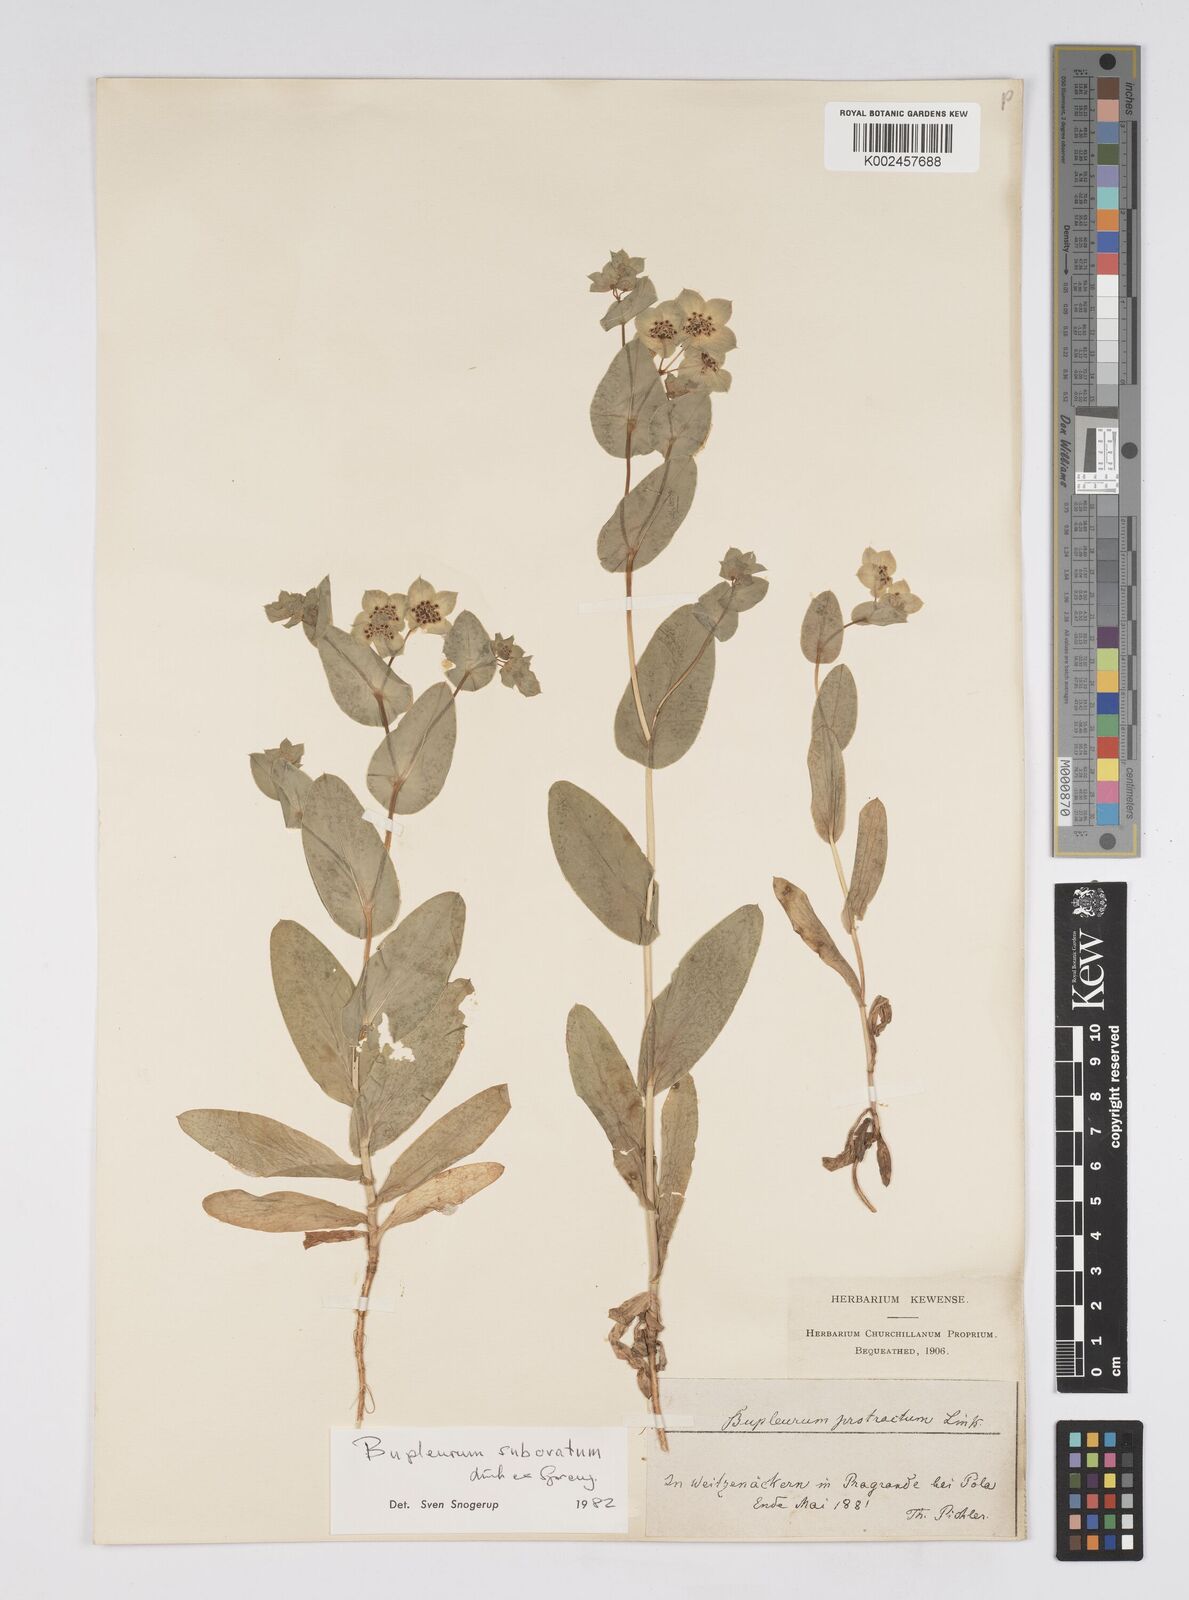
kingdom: Plantae
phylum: Tracheophyta
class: Magnoliopsida
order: Apiales
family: Apiaceae
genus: Bupleurum
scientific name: Bupleurum lancifolium
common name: False thorow-wax
